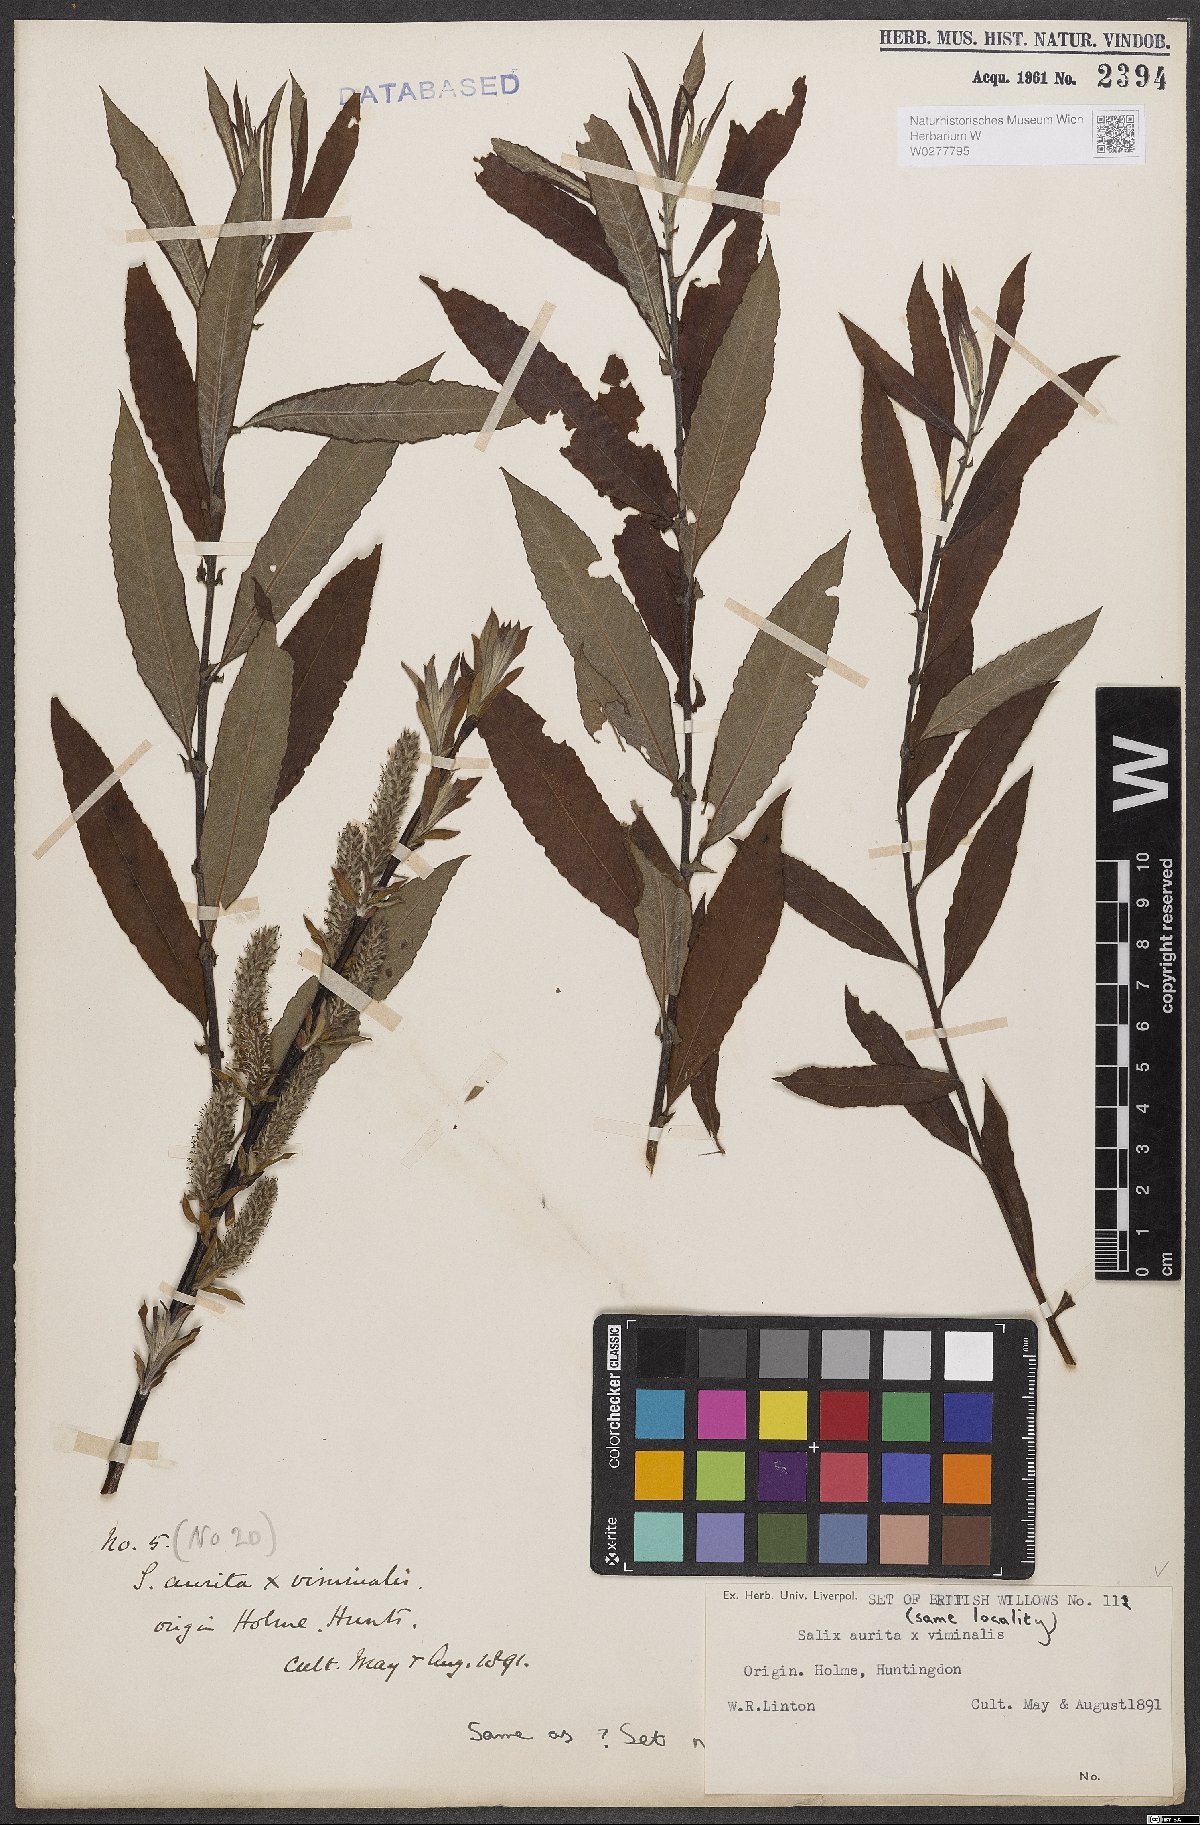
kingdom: Plantae
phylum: Tracheophyta
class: Magnoliopsida
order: Malpighiales
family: Salicaceae
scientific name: Salicaceae
